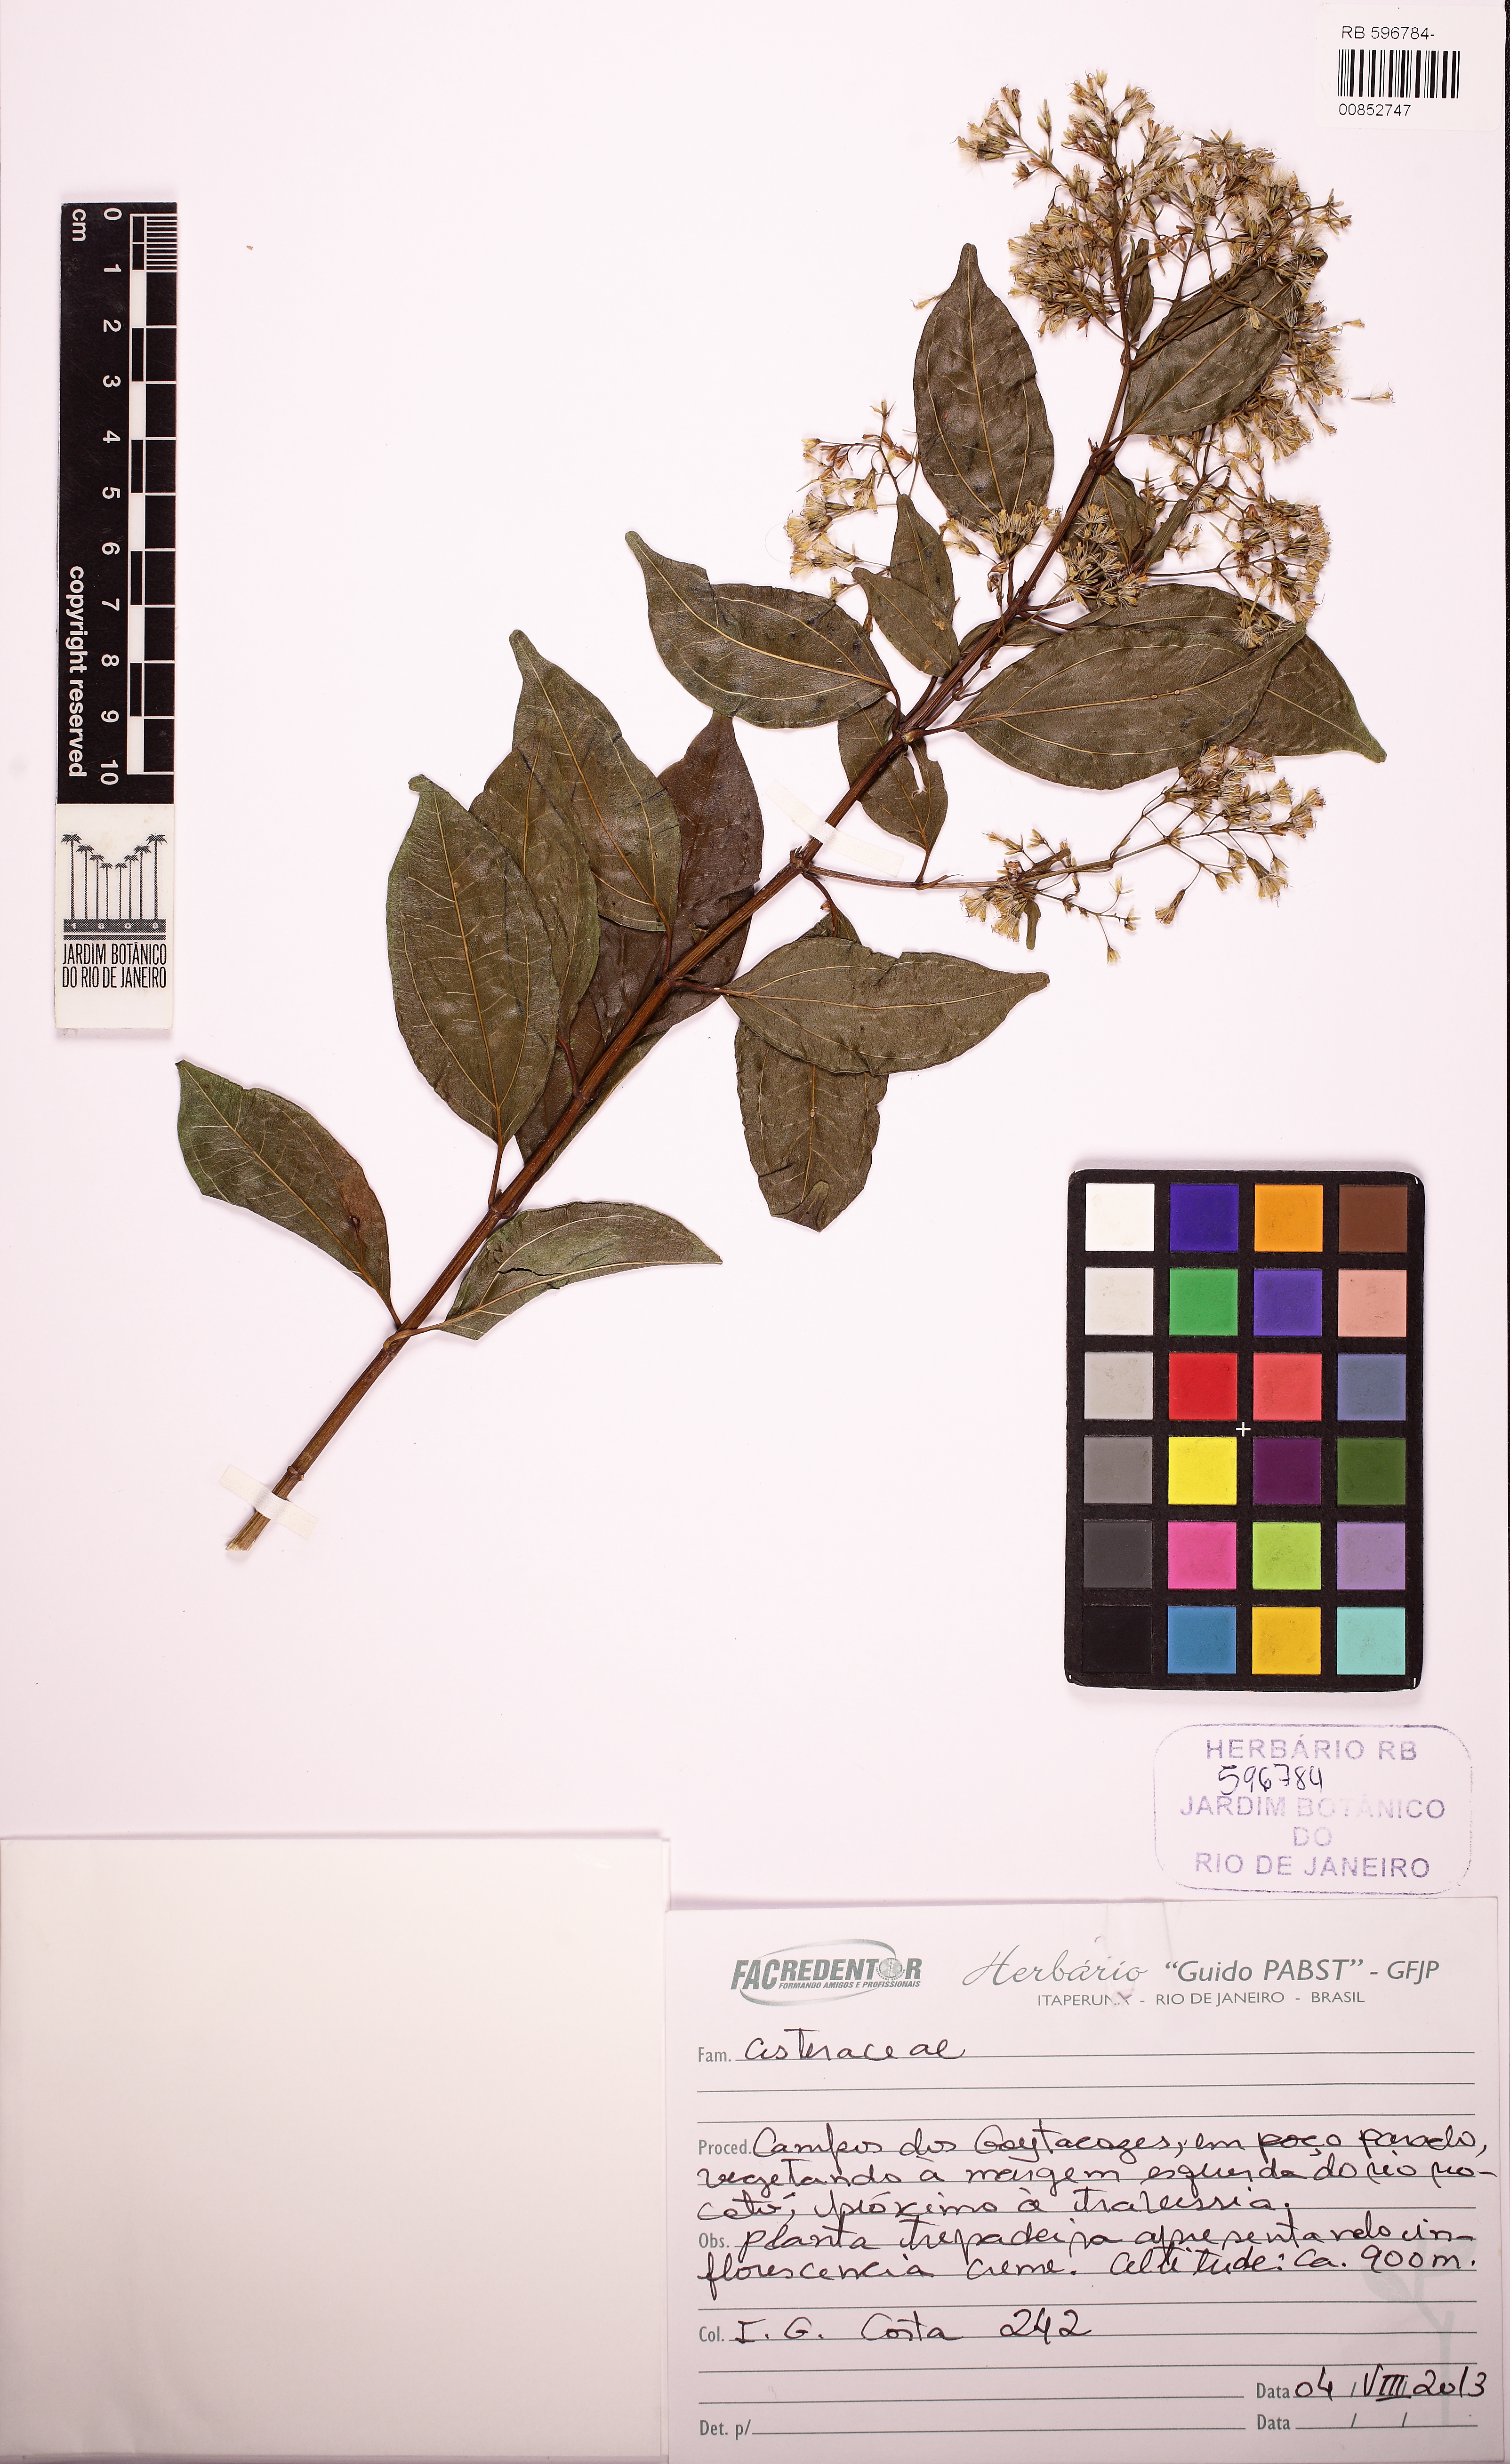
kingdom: Plantae
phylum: Tracheophyta
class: Magnoliopsida
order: Asterales
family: Asteraceae
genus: Mikania
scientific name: Mikania
